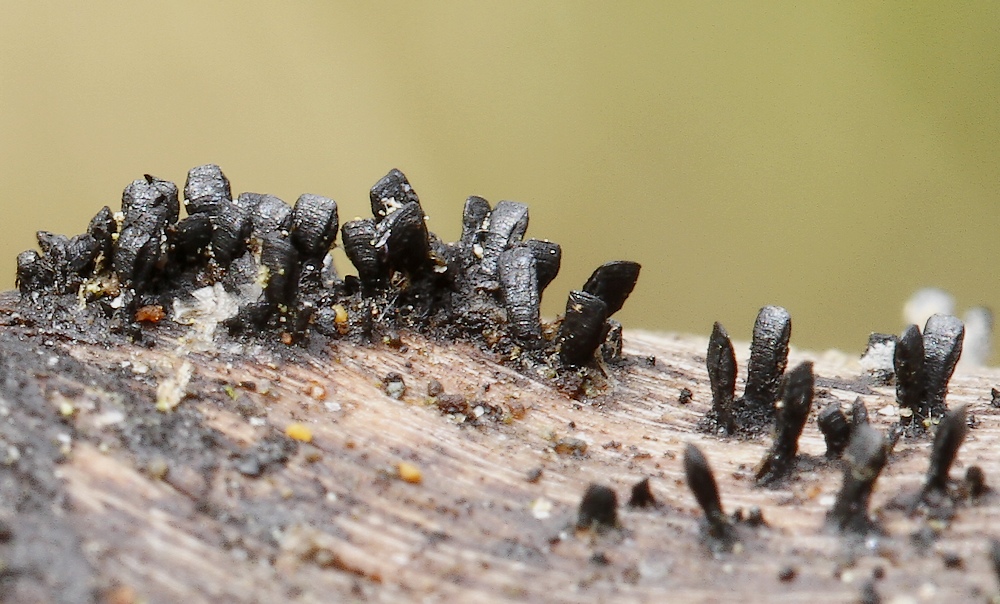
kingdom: Fungi
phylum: Ascomycota
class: Eurotiomycetes
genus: Glyphium
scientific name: Glyphium elatum
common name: kuløkse
